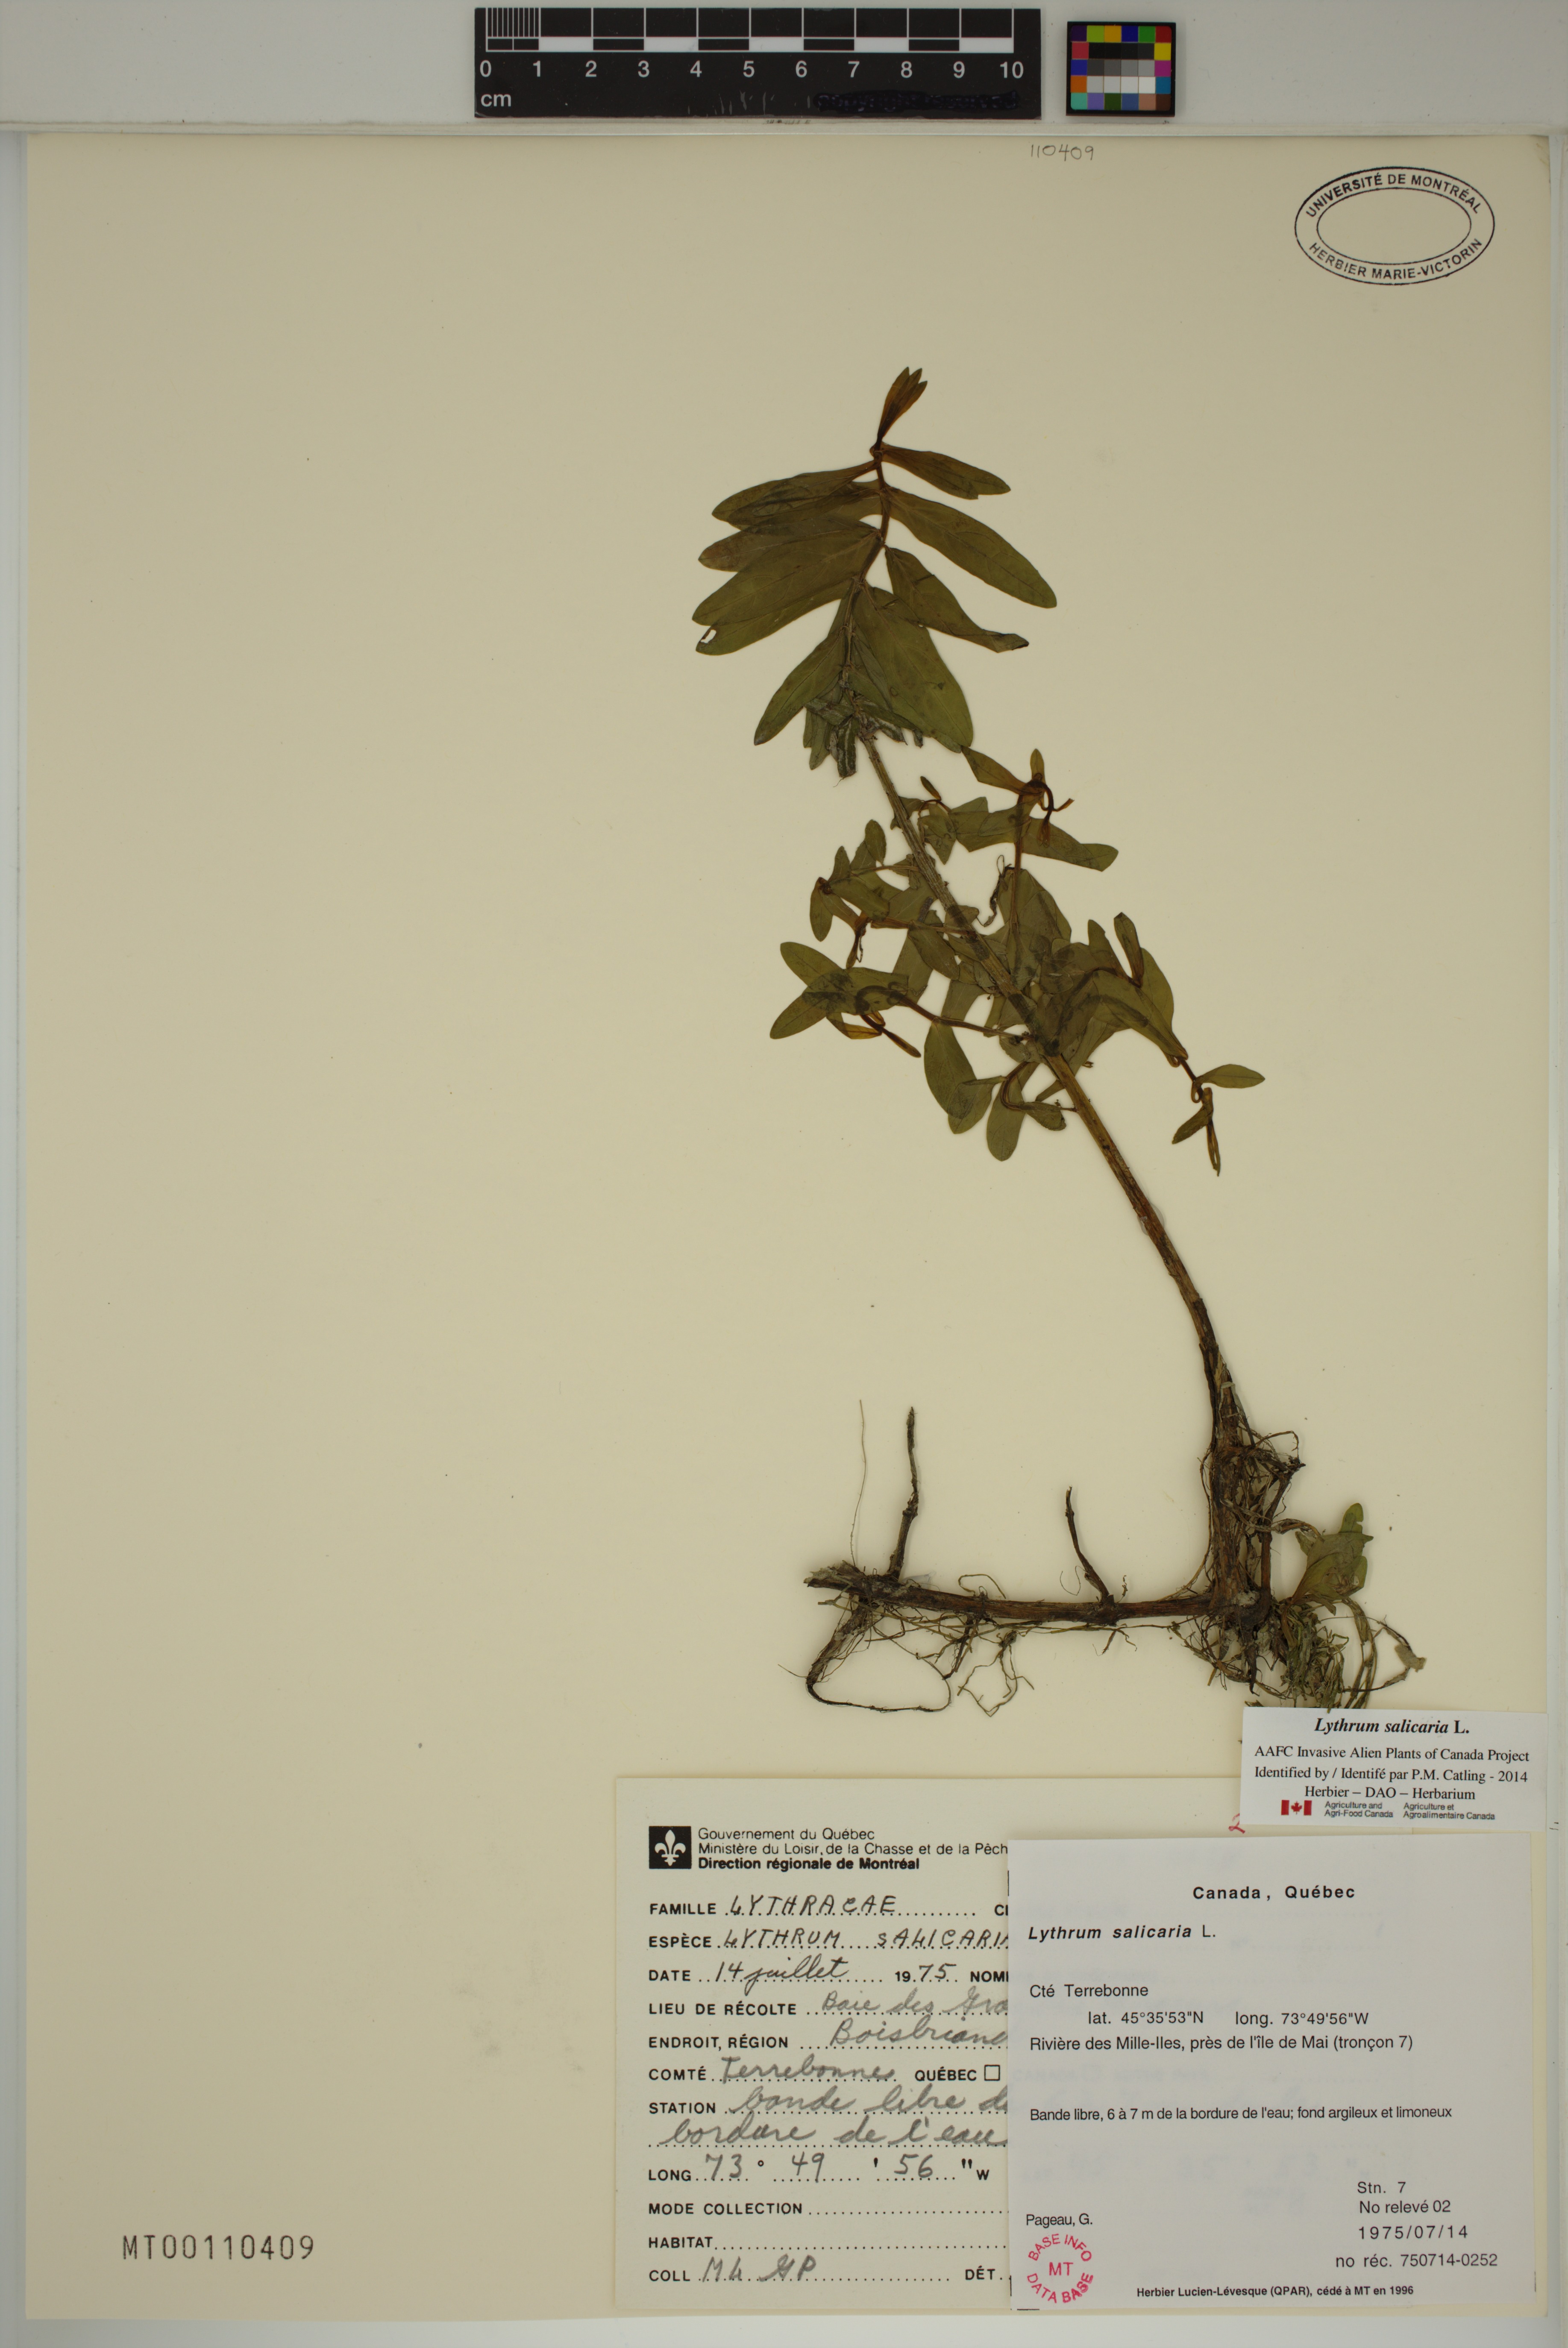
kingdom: Plantae
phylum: Tracheophyta
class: Magnoliopsida
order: Myrtales
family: Lythraceae
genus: Lythrum
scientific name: Lythrum salicaria
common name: Purple loosestrife
